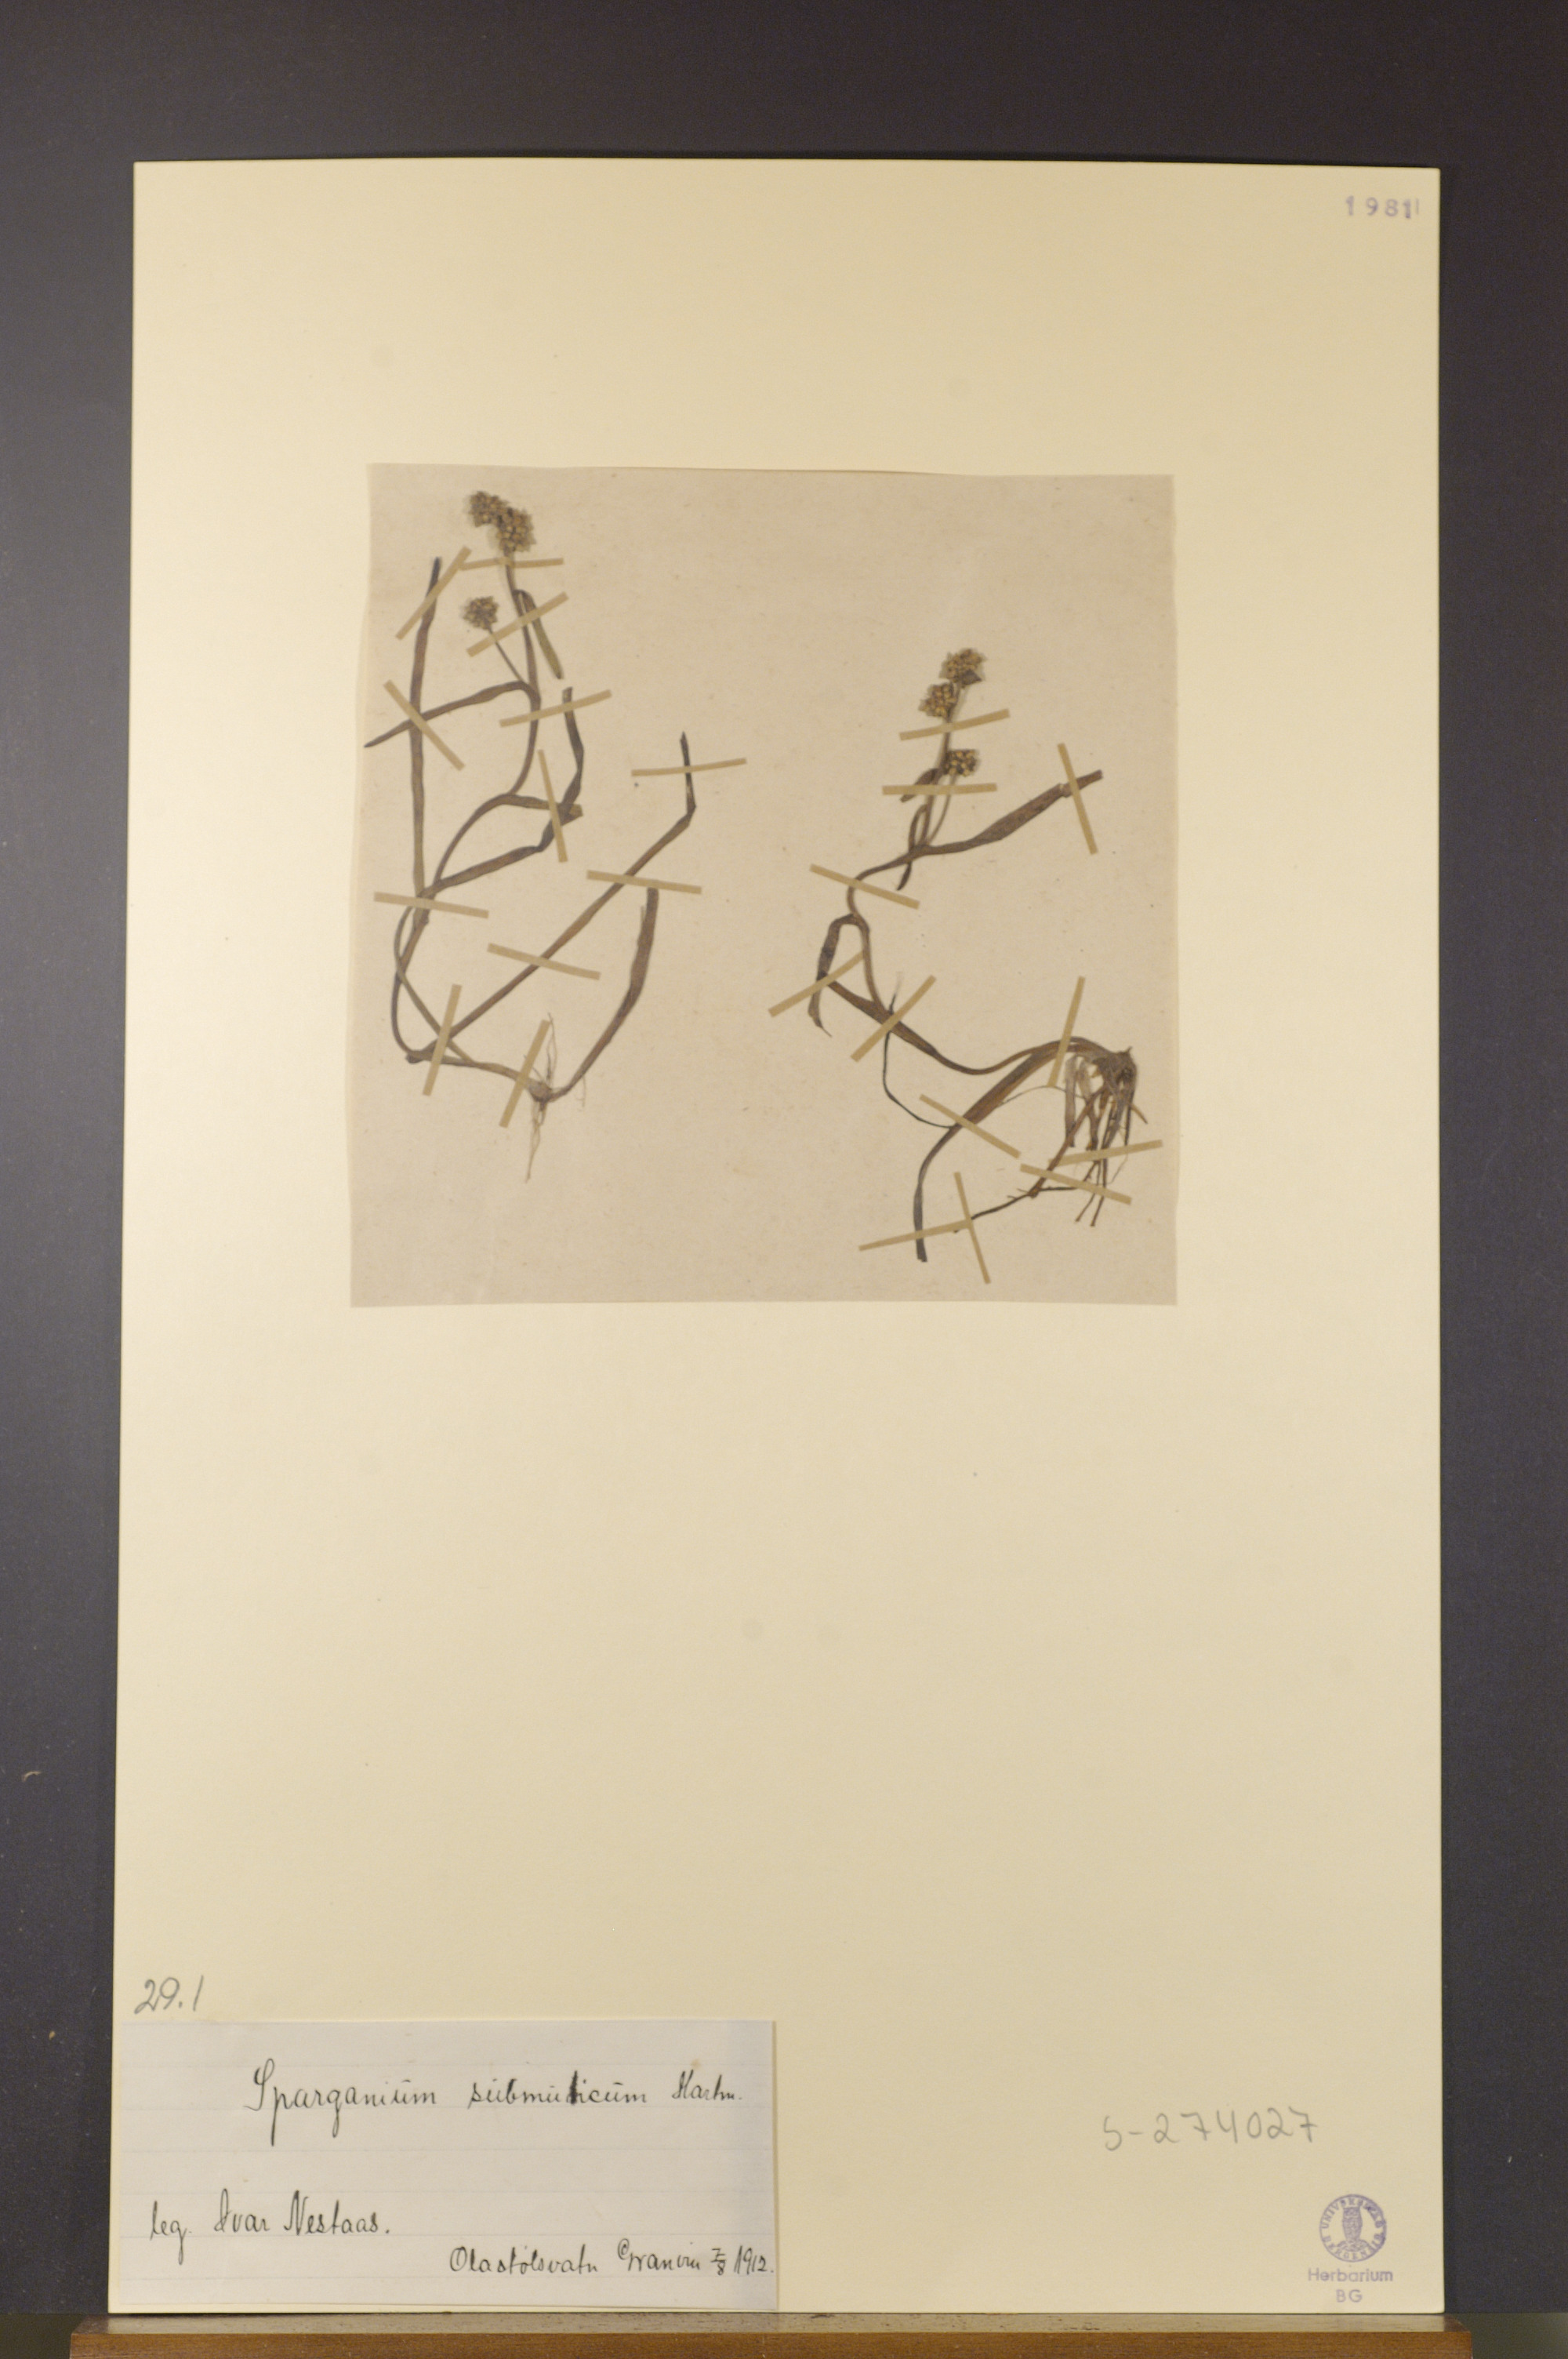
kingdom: Plantae
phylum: Tracheophyta
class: Liliopsida
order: Poales
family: Typhaceae
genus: Sparganium
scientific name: Sparganium hyperboreum
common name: Arctic burreed
